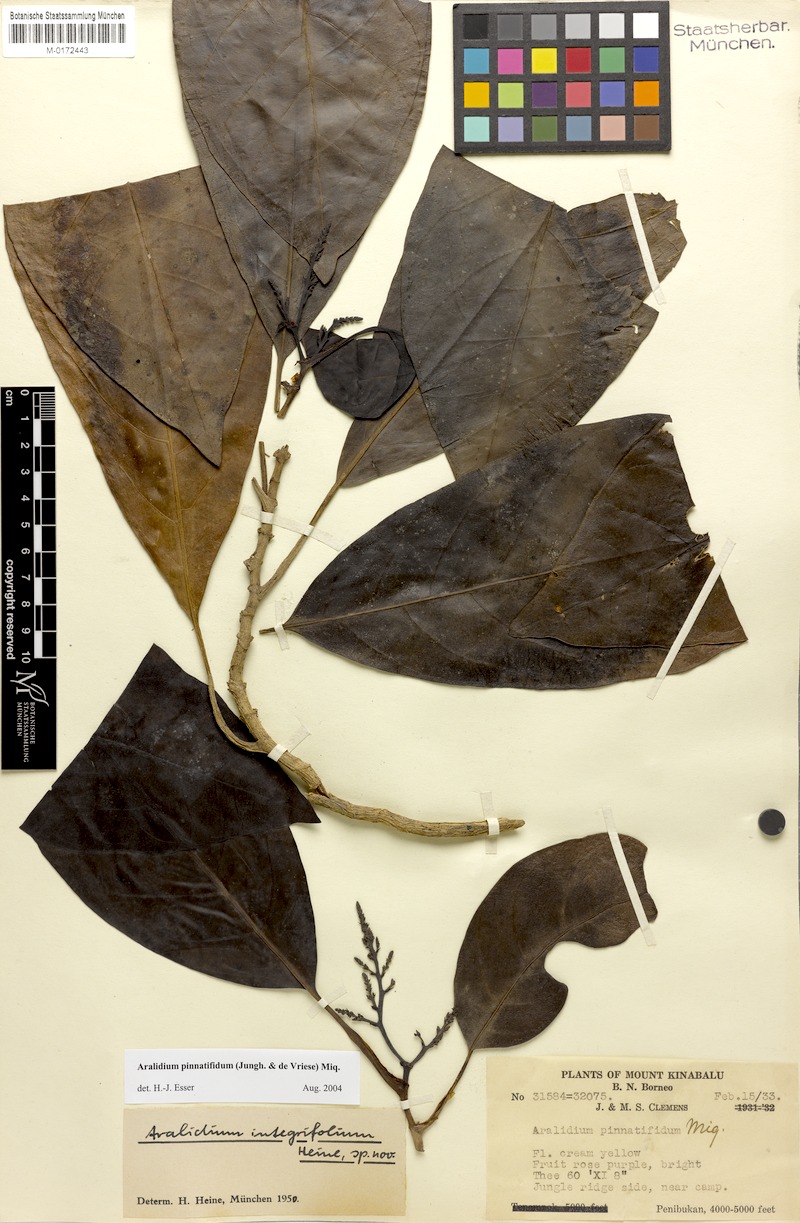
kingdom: Plantae
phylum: Tracheophyta
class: Magnoliopsida
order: Apiales
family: Torricelliaceae
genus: Aralidium
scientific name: Aralidium pinnatifidum
